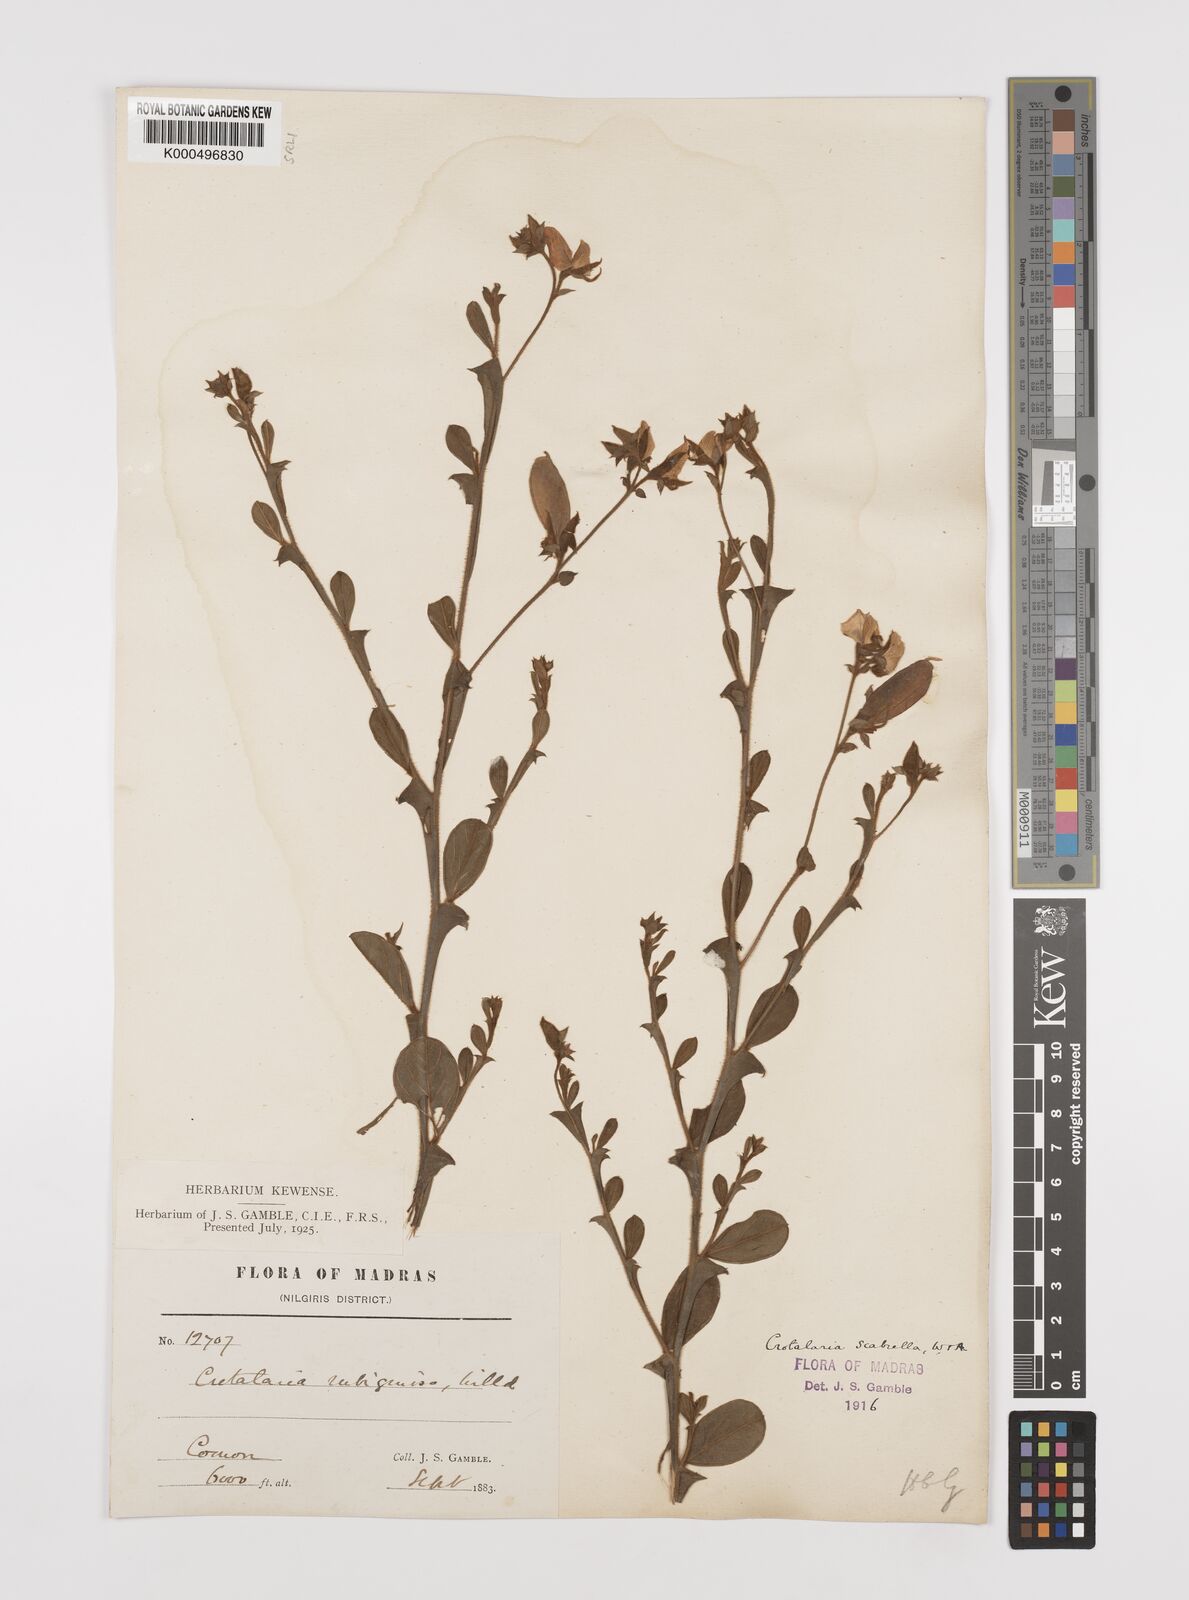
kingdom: Plantae
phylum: Tracheophyta
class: Magnoliopsida
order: Fabales
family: Fabaceae
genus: Crotalaria
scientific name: Crotalaria scabrella
